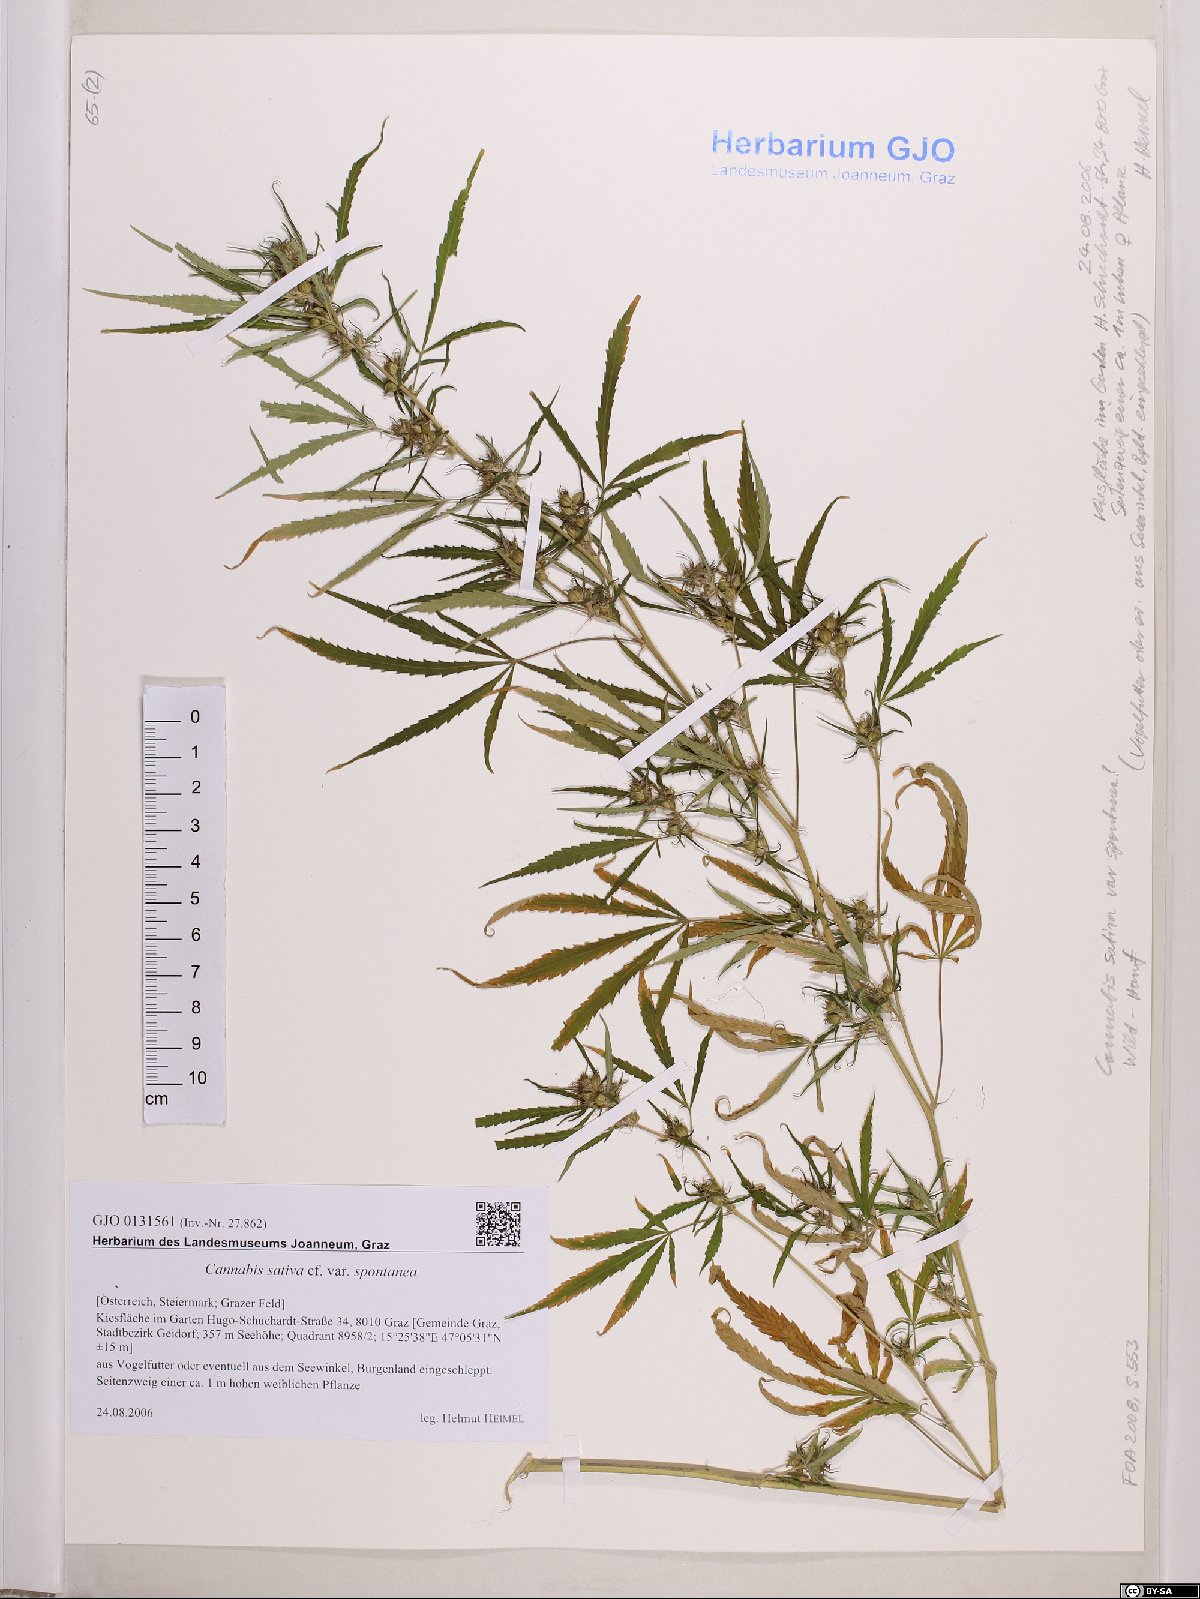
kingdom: Plantae
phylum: Tracheophyta
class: Magnoliopsida
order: Rosales
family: Cannabaceae
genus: Cannabis
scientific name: Cannabis sativa
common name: Hemp
